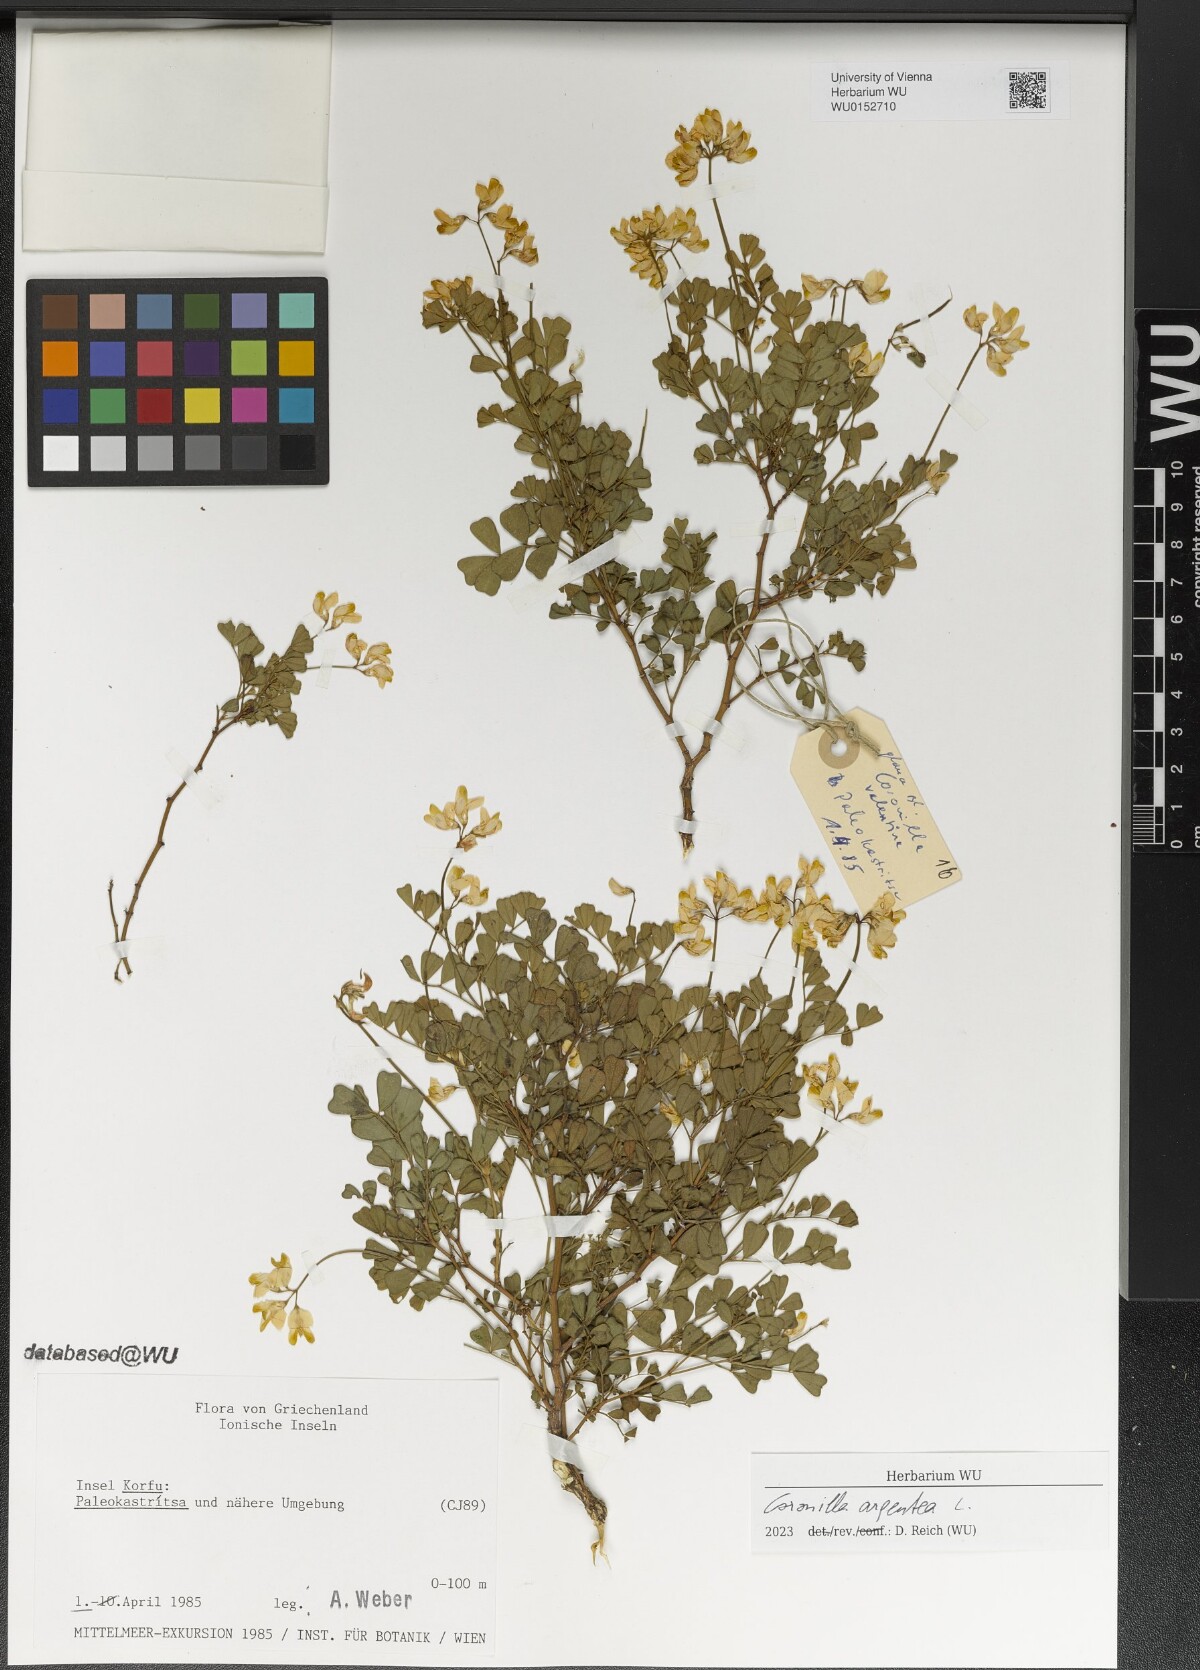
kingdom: Plantae
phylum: Tracheophyta
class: Magnoliopsida
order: Fabales
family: Fabaceae
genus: Coronilla
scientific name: Coronilla valentina
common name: Shrubby scorpion-vetch
